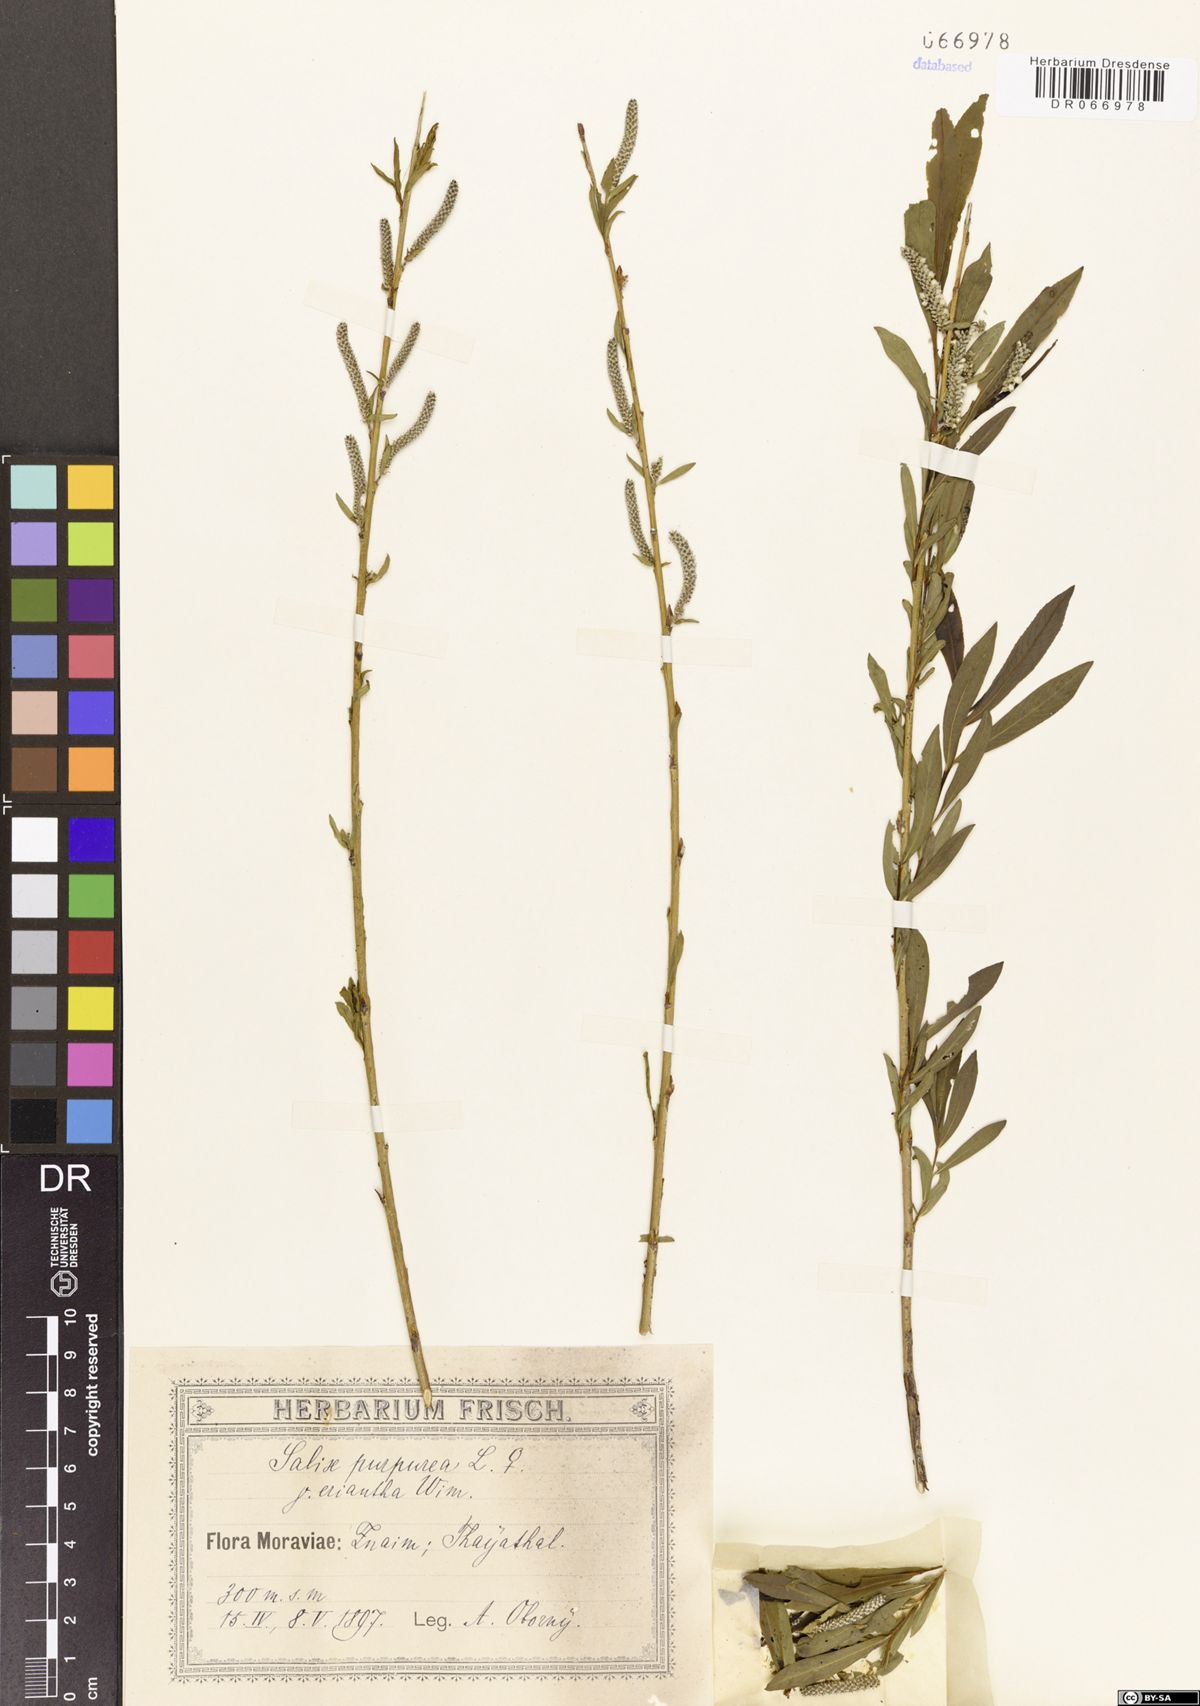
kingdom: Plantae
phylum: Tracheophyta
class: Magnoliopsida
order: Malpighiales
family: Salicaceae
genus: Salix
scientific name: Salix purpurea
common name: Purple willow
